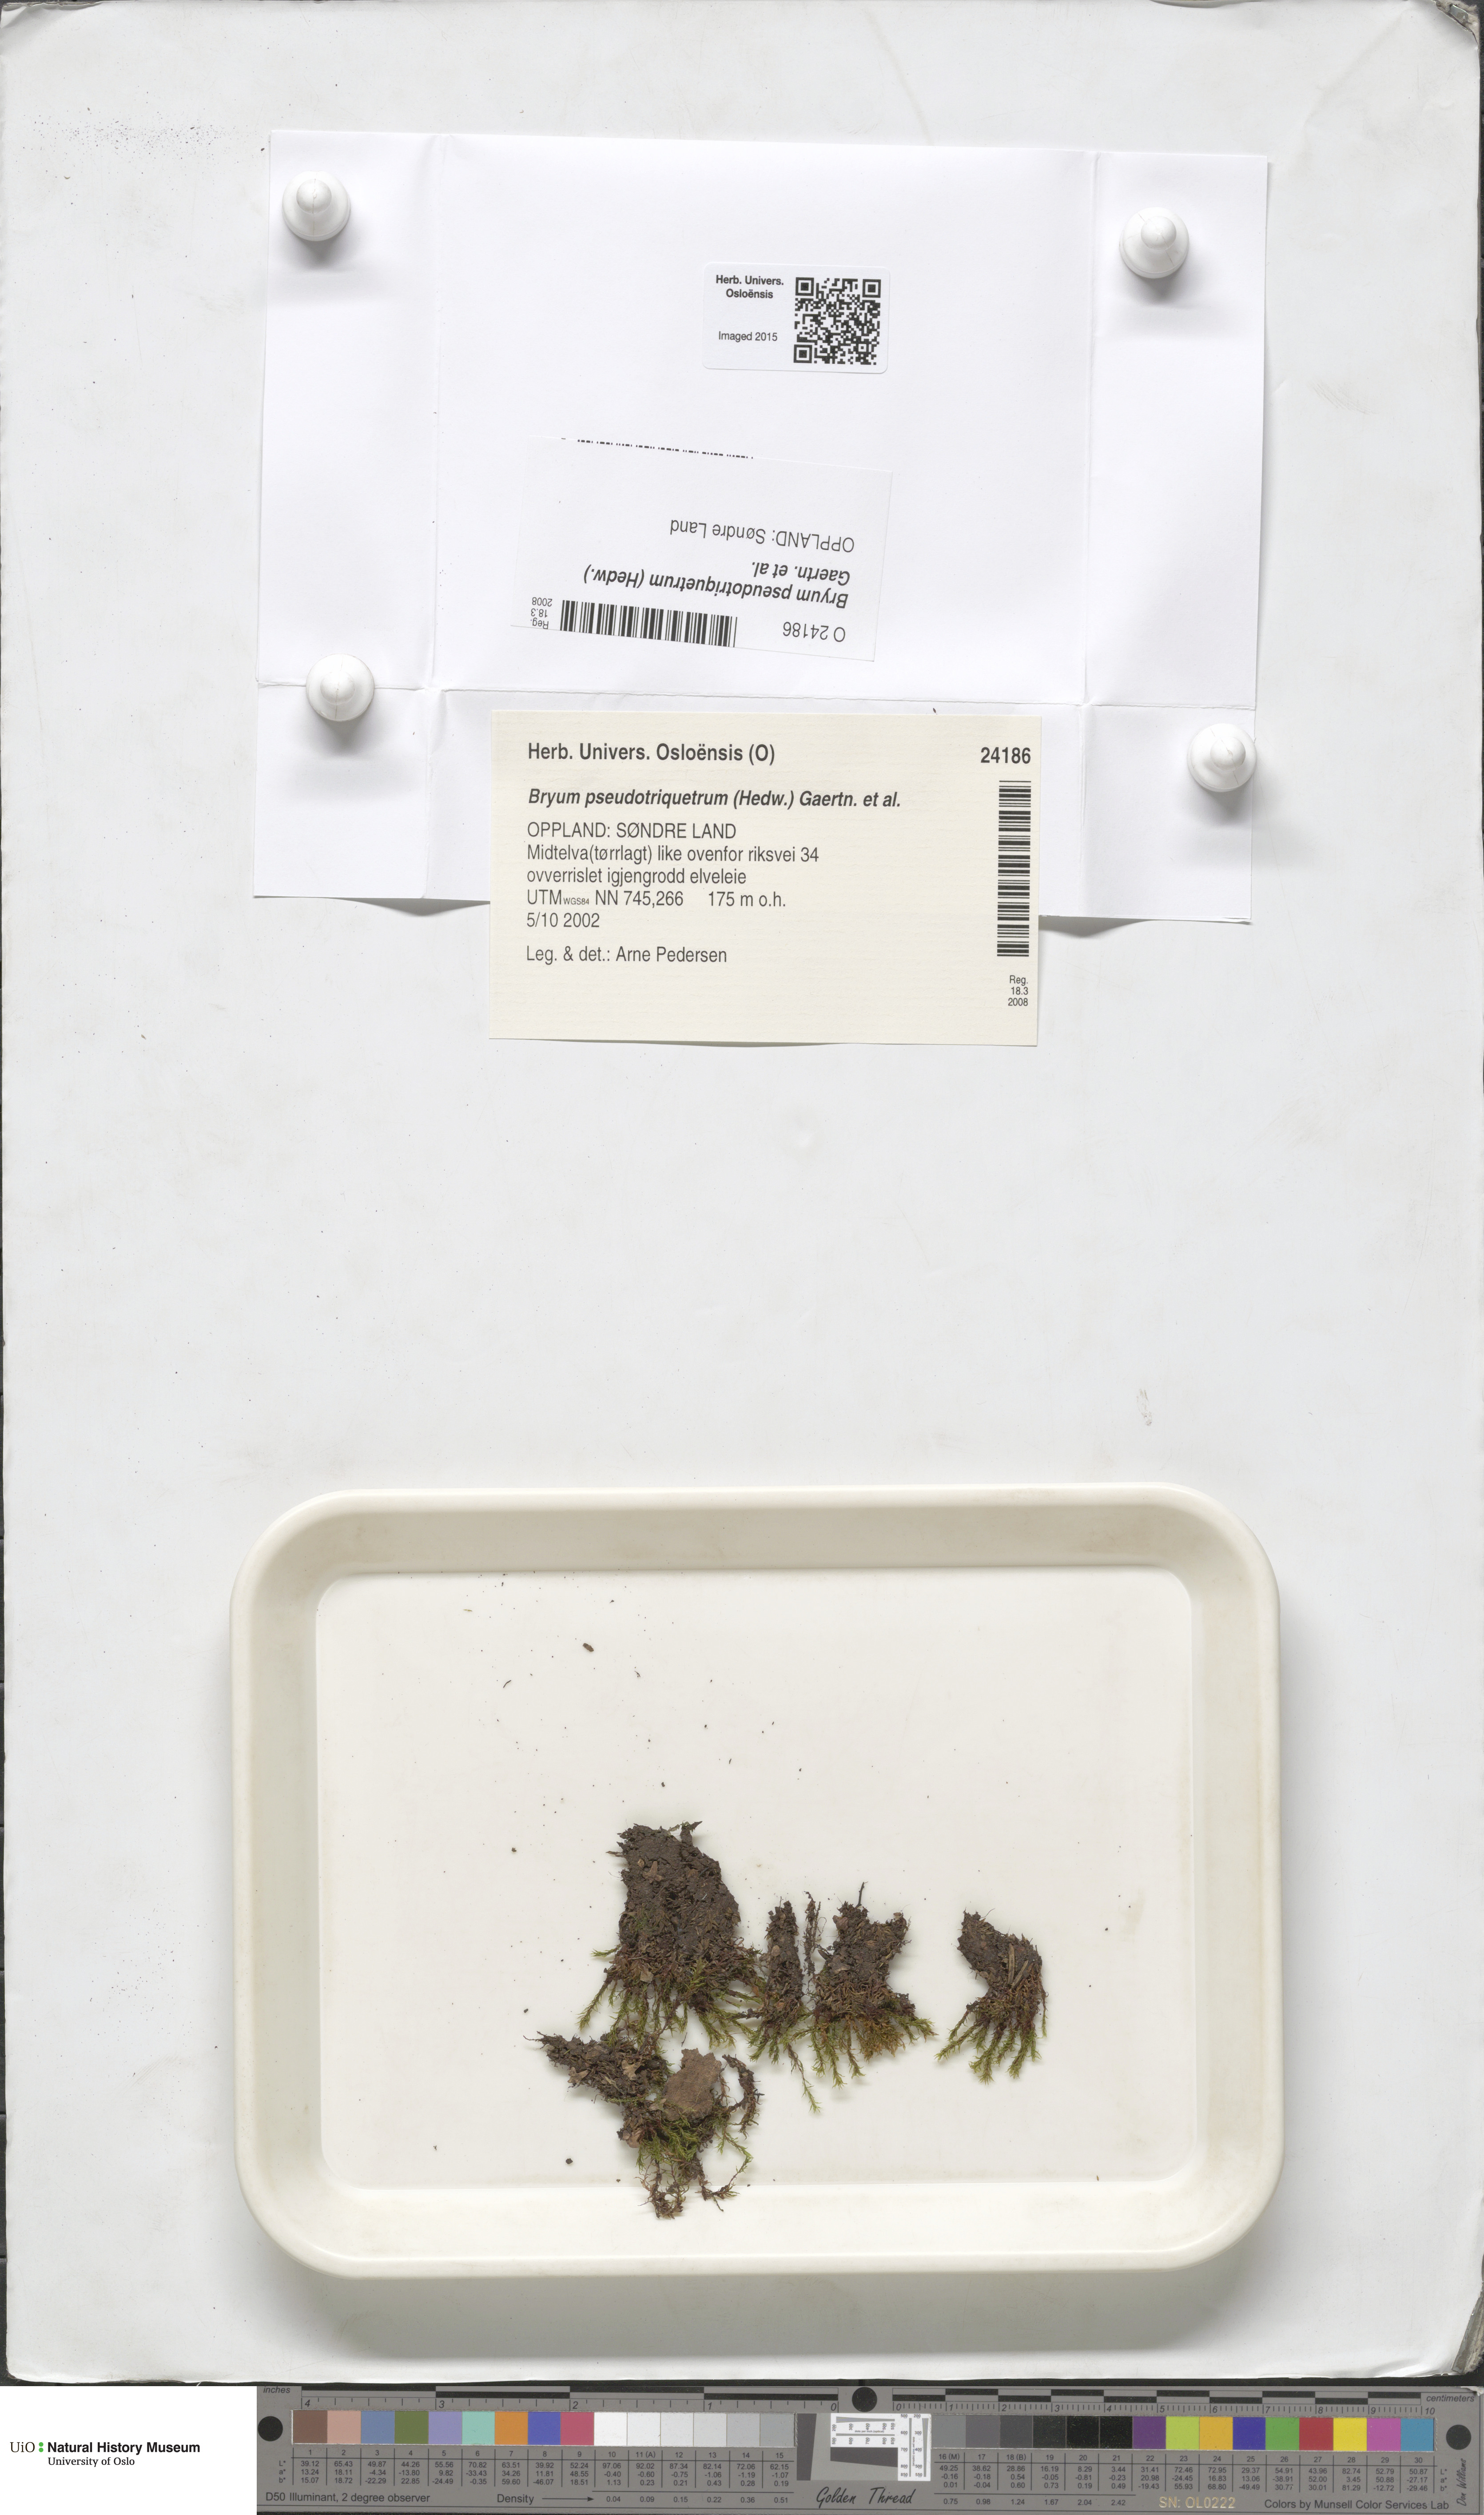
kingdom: Plantae
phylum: Bryophyta
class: Bryopsida
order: Bryales
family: Bryaceae
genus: Ptychostomum
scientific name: Ptychostomum pseudotriquetrum
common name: Long-leaved thread moss
